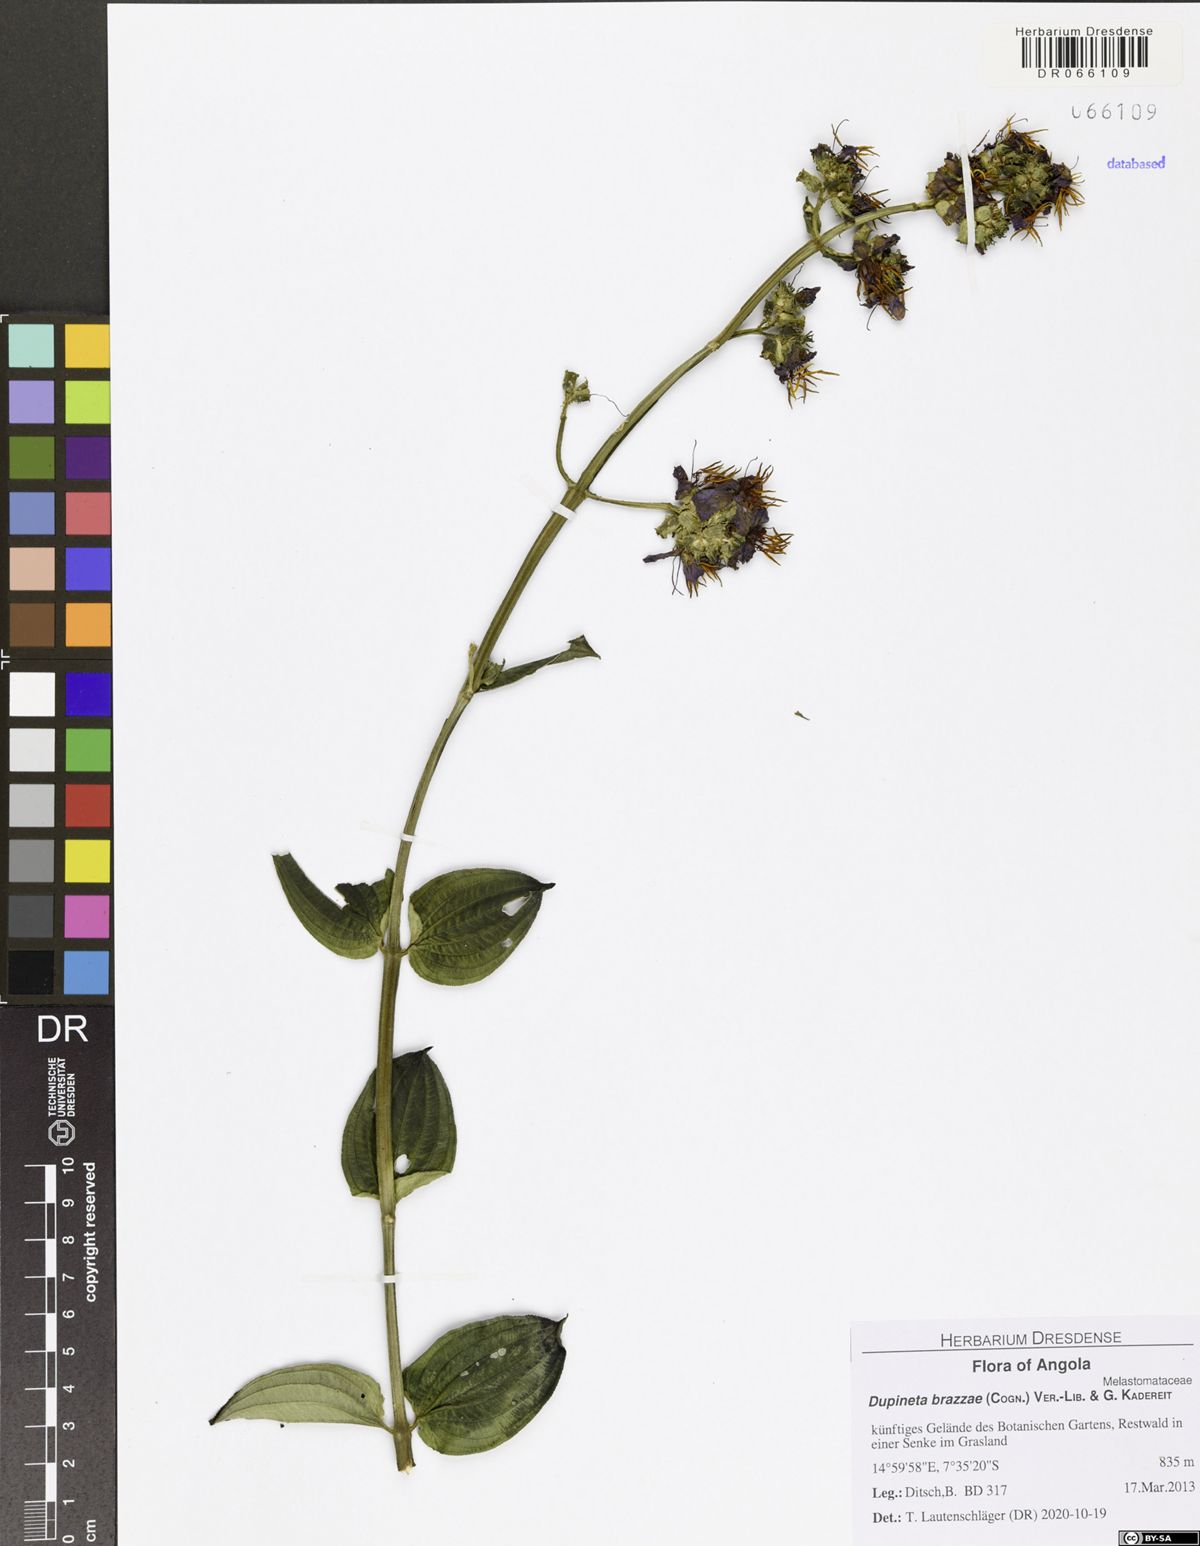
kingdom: Plantae
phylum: Tracheophyta
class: Magnoliopsida
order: Myrtales
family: Melastomataceae
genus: Dupineta
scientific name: Dupineta brazzae
